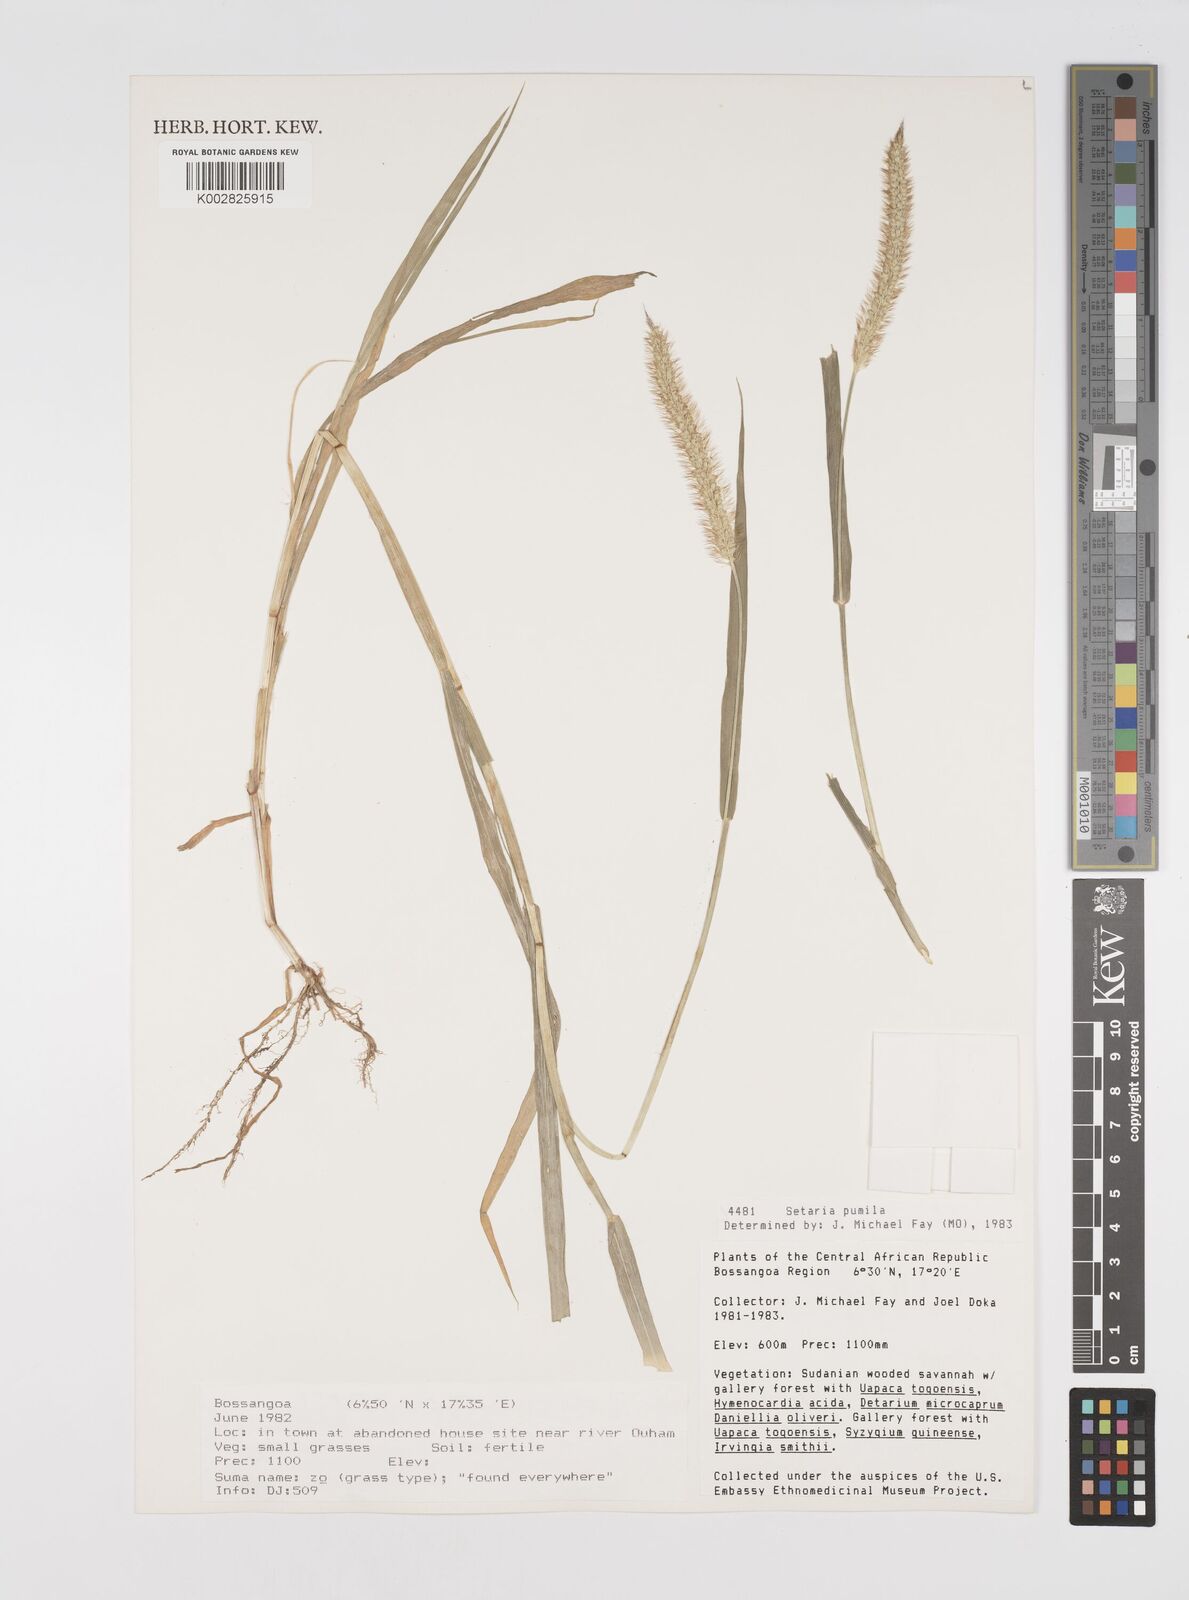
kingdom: Plantae
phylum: Tracheophyta
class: Liliopsida
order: Poales
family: Poaceae
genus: Setaria
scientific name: Setaria pumila
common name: Yellow bristle-grass
